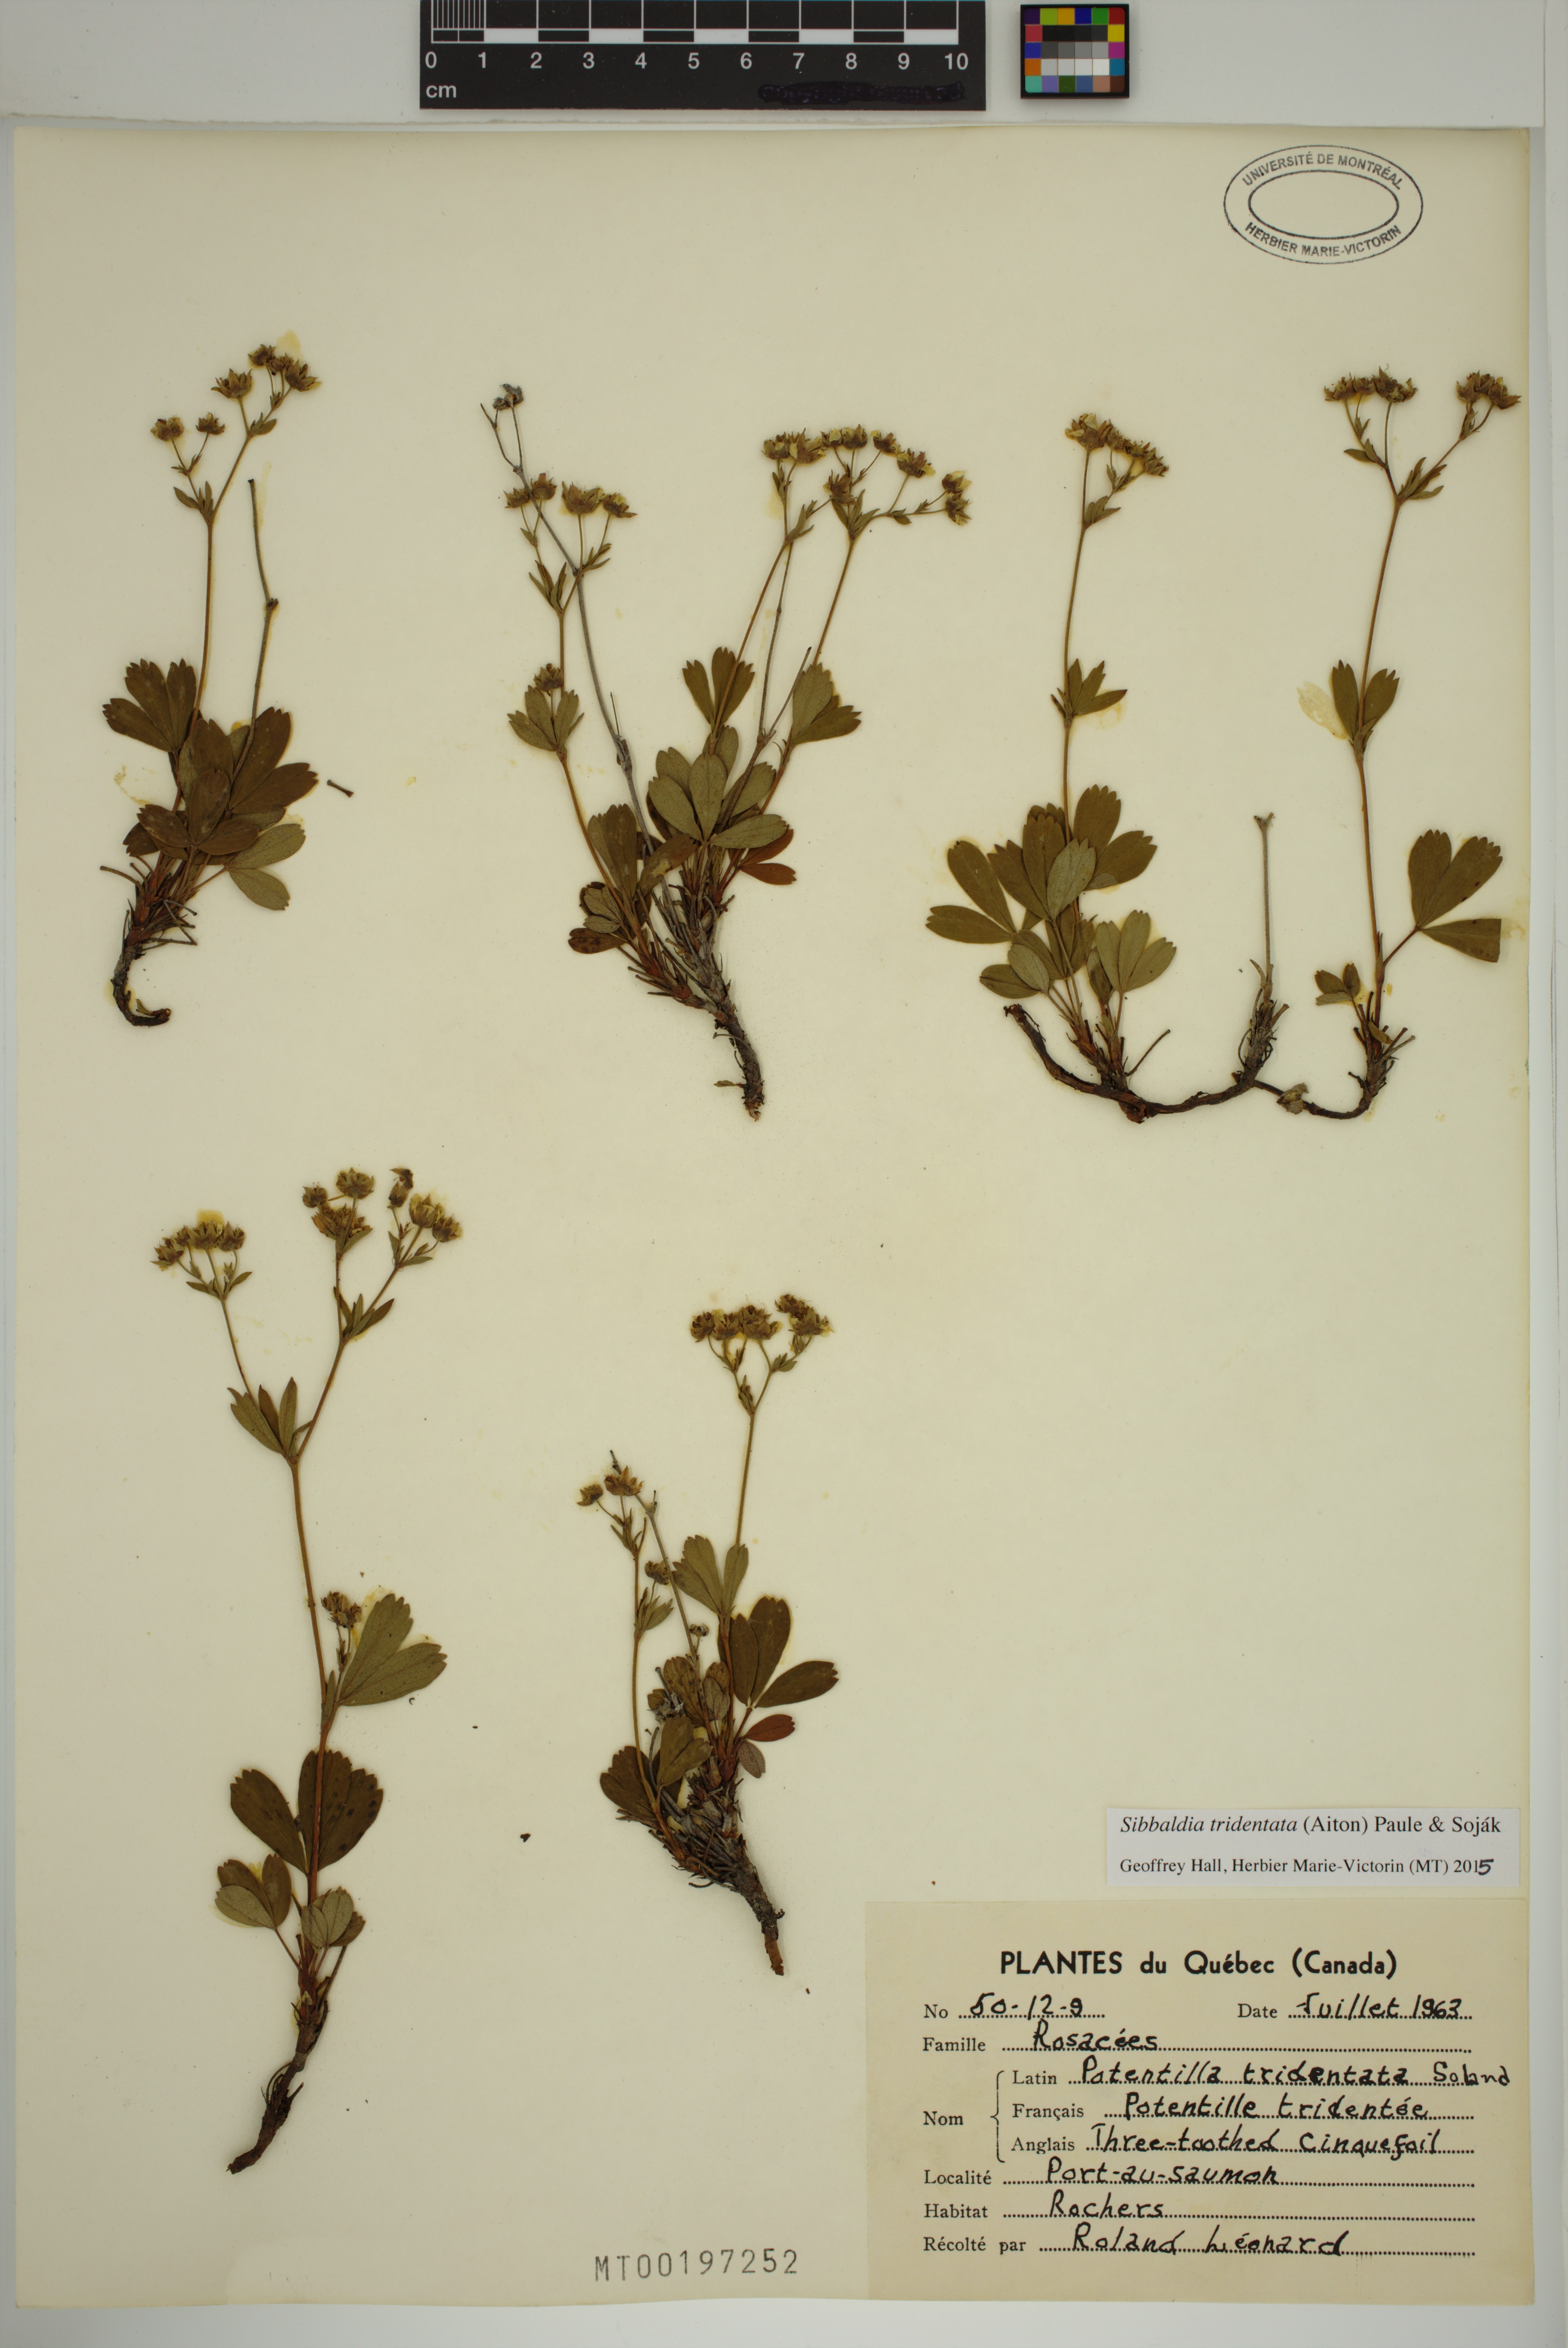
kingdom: Plantae
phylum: Tracheophyta
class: Magnoliopsida
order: Rosales
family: Rosaceae
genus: Sibbaldia
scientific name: Sibbaldia tridentata
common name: Three-toothed cinquefoil
